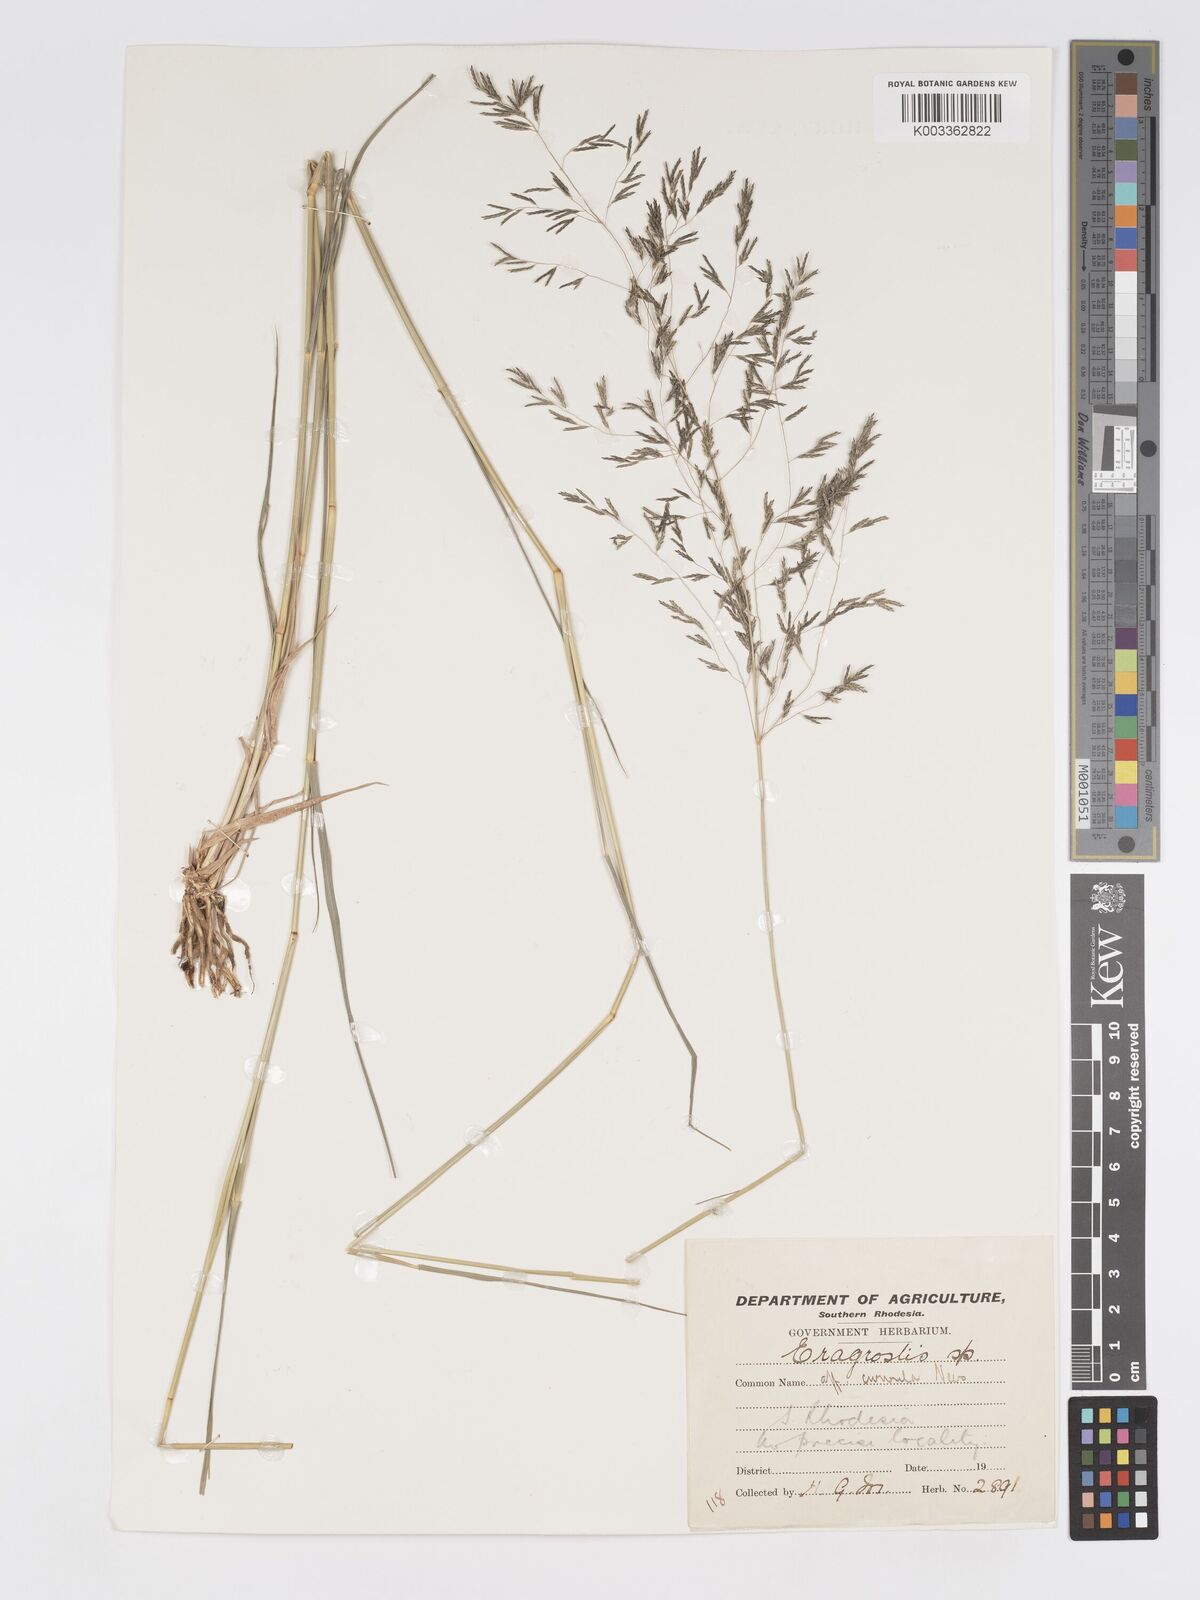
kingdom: Plantae
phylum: Tracheophyta
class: Liliopsida
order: Poales
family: Poaceae
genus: Eragrostis
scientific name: Eragrostis cylindriflora
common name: Cylinderflower lovegrass
